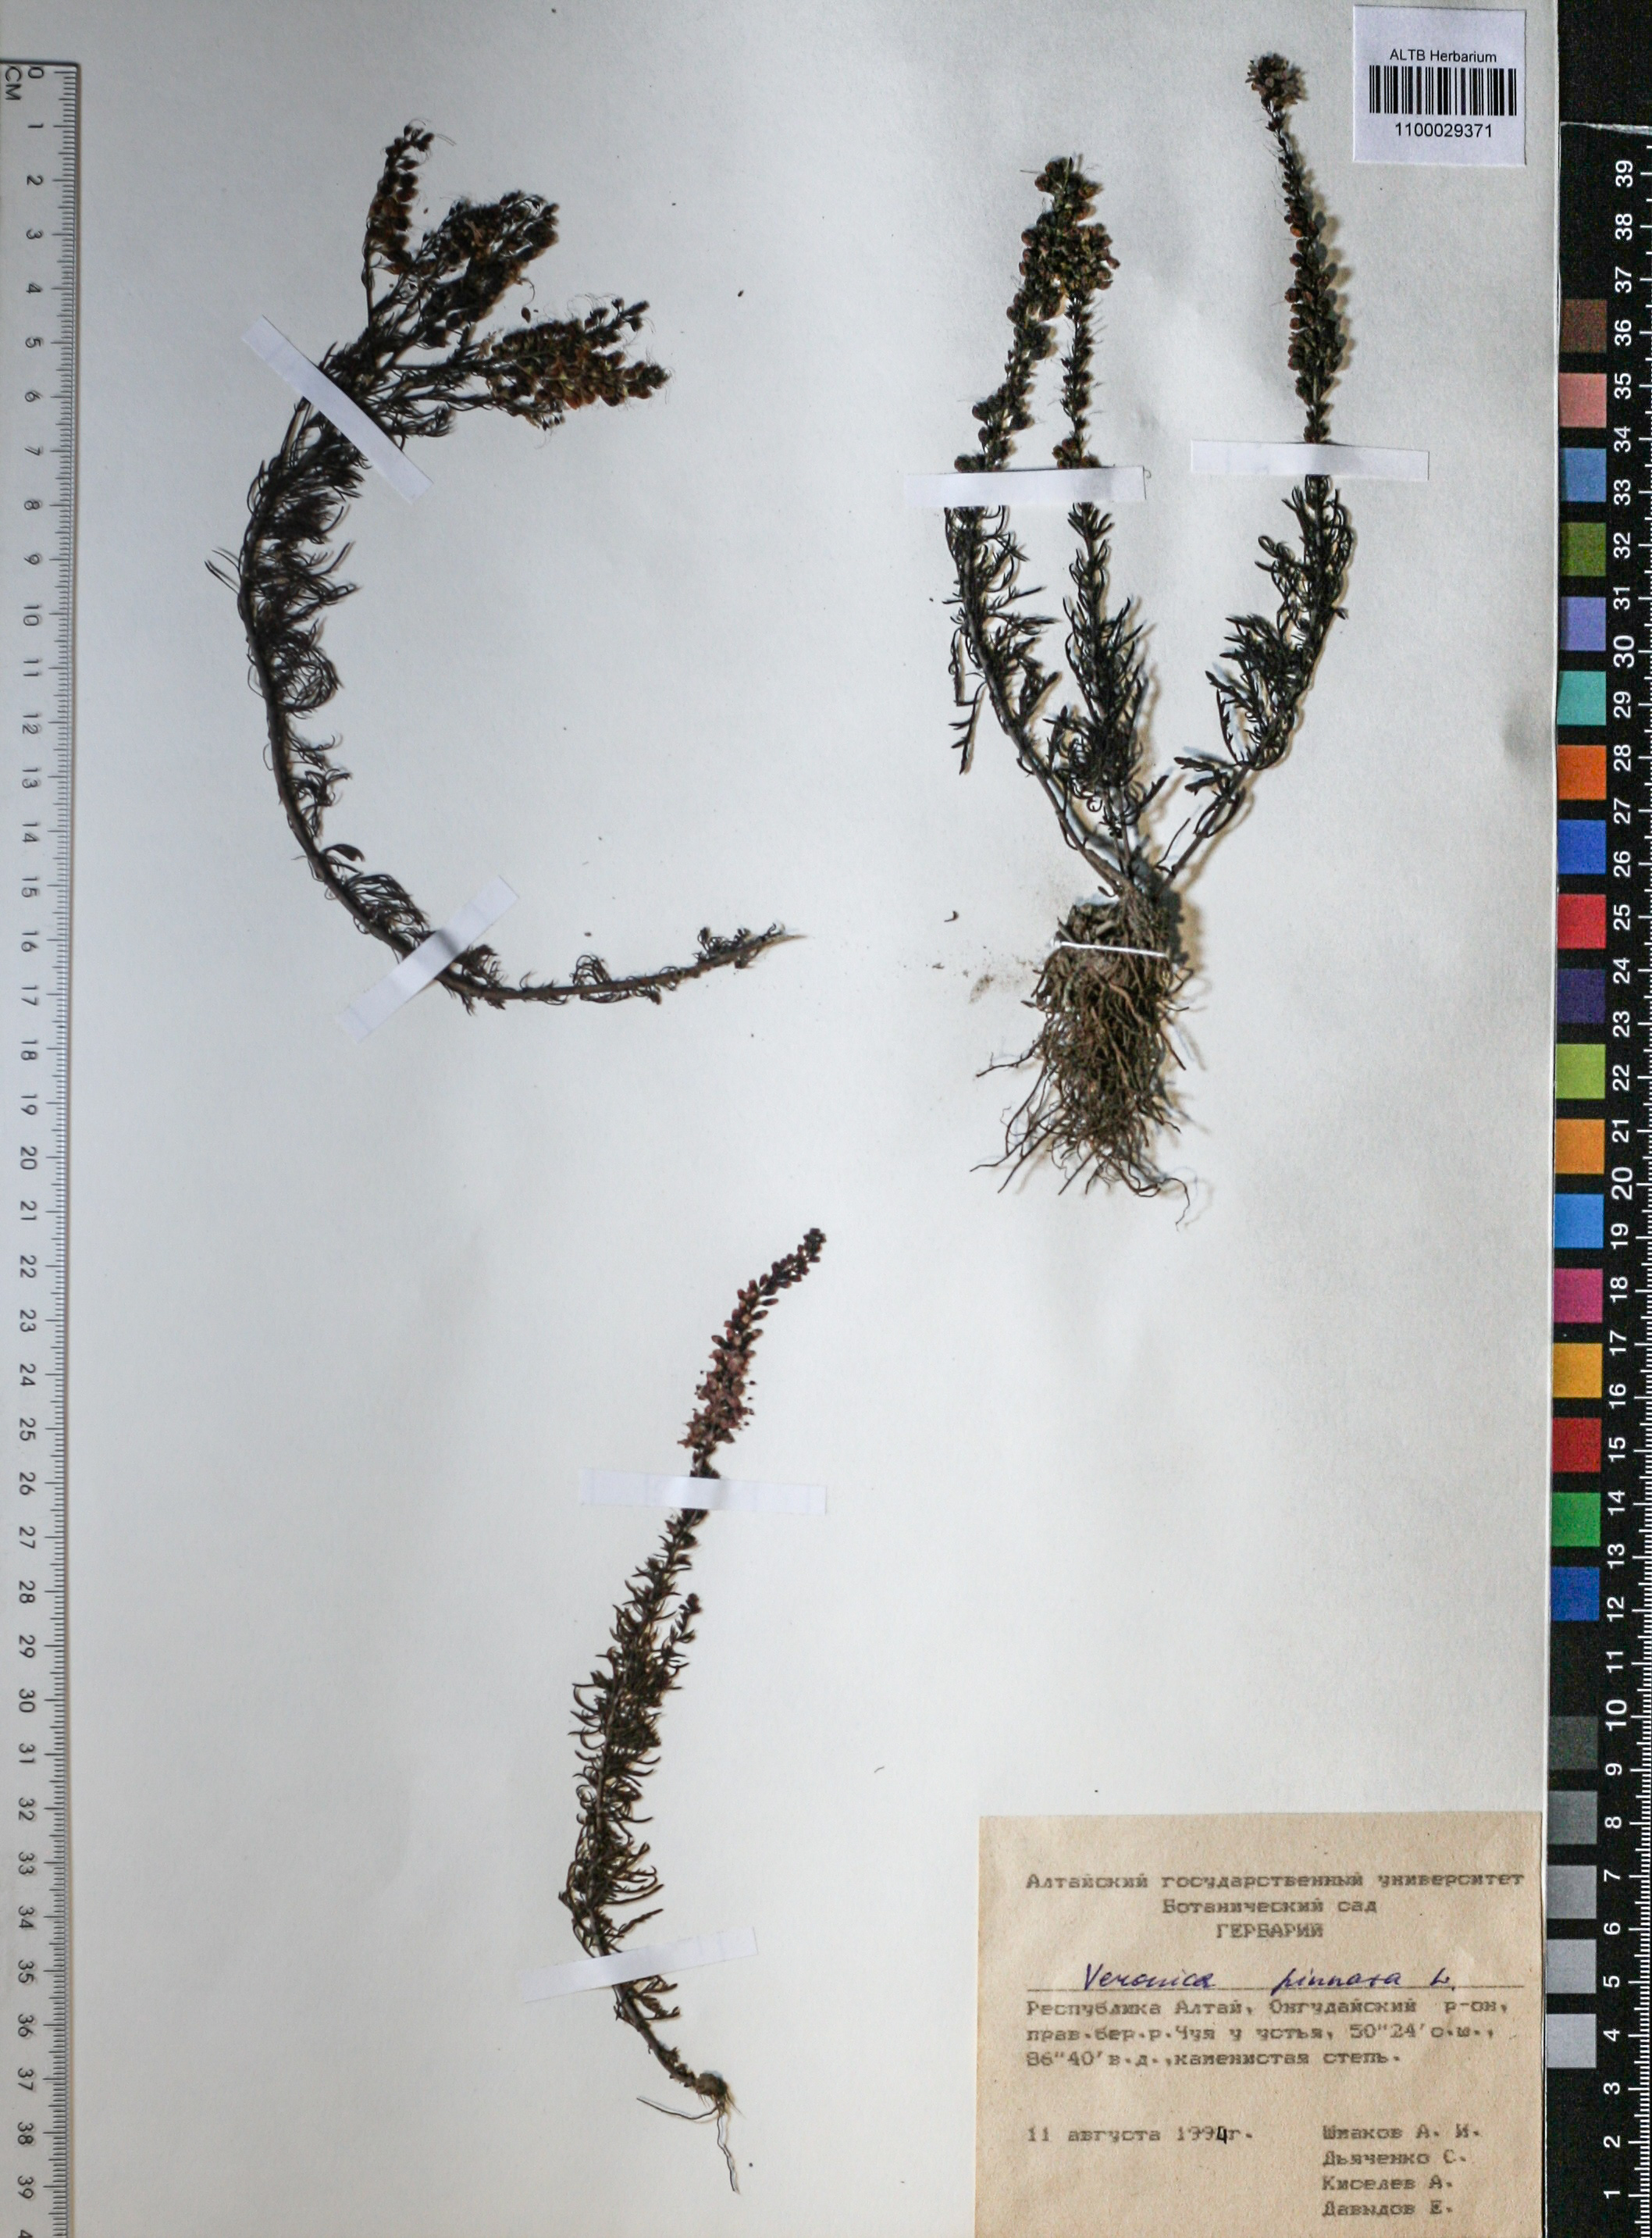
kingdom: Plantae
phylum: Tracheophyta
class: Magnoliopsida
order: Lamiales
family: Plantaginaceae
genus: Veronica
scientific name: Veronica pinnata
